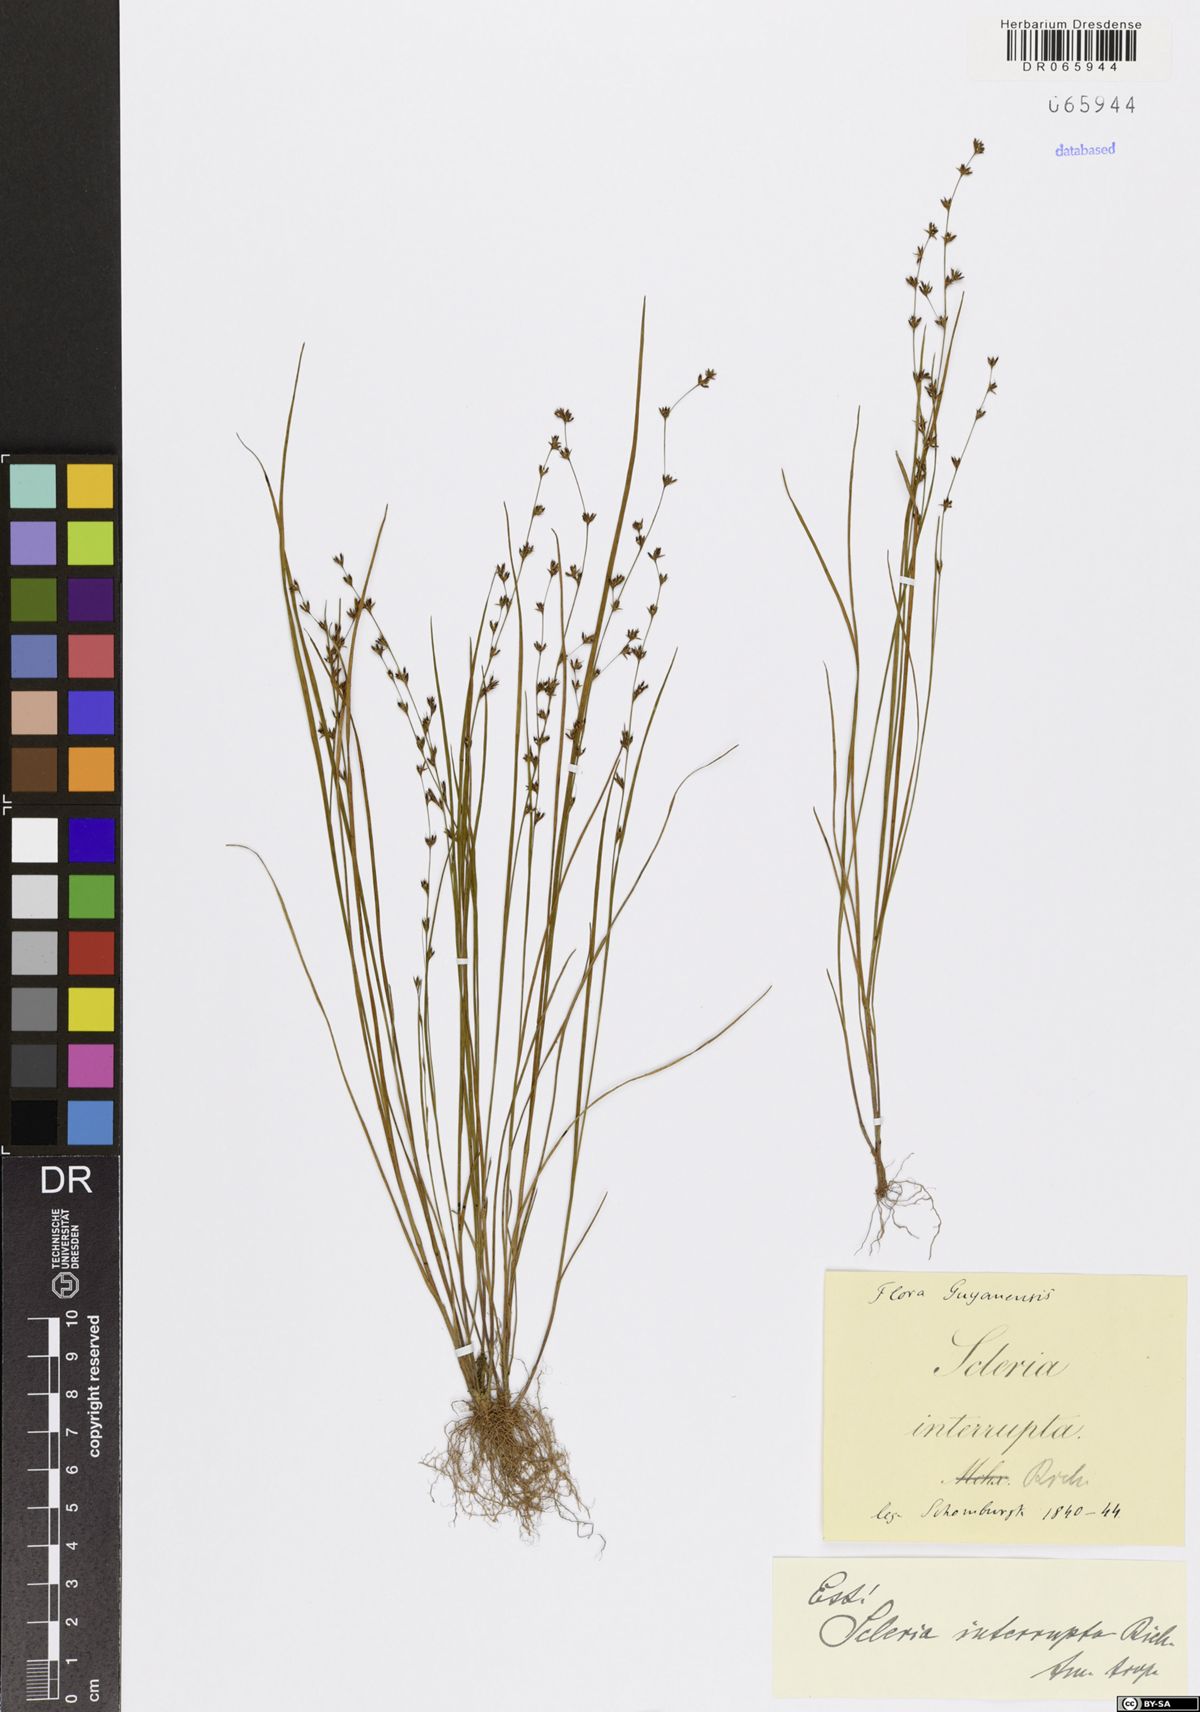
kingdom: Plantae
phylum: Tracheophyta
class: Liliopsida
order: Poales
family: Cyperaceae
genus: Scleria
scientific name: Scleria interrupta
